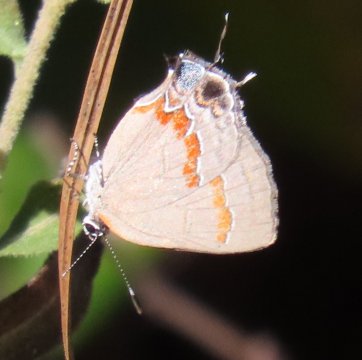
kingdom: Animalia
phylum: Arthropoda
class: Insecta
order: Lepidoptera
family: Lycaenidae
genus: Calycopis
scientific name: Calycopis cecrops
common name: Red-banded Hairstreak
